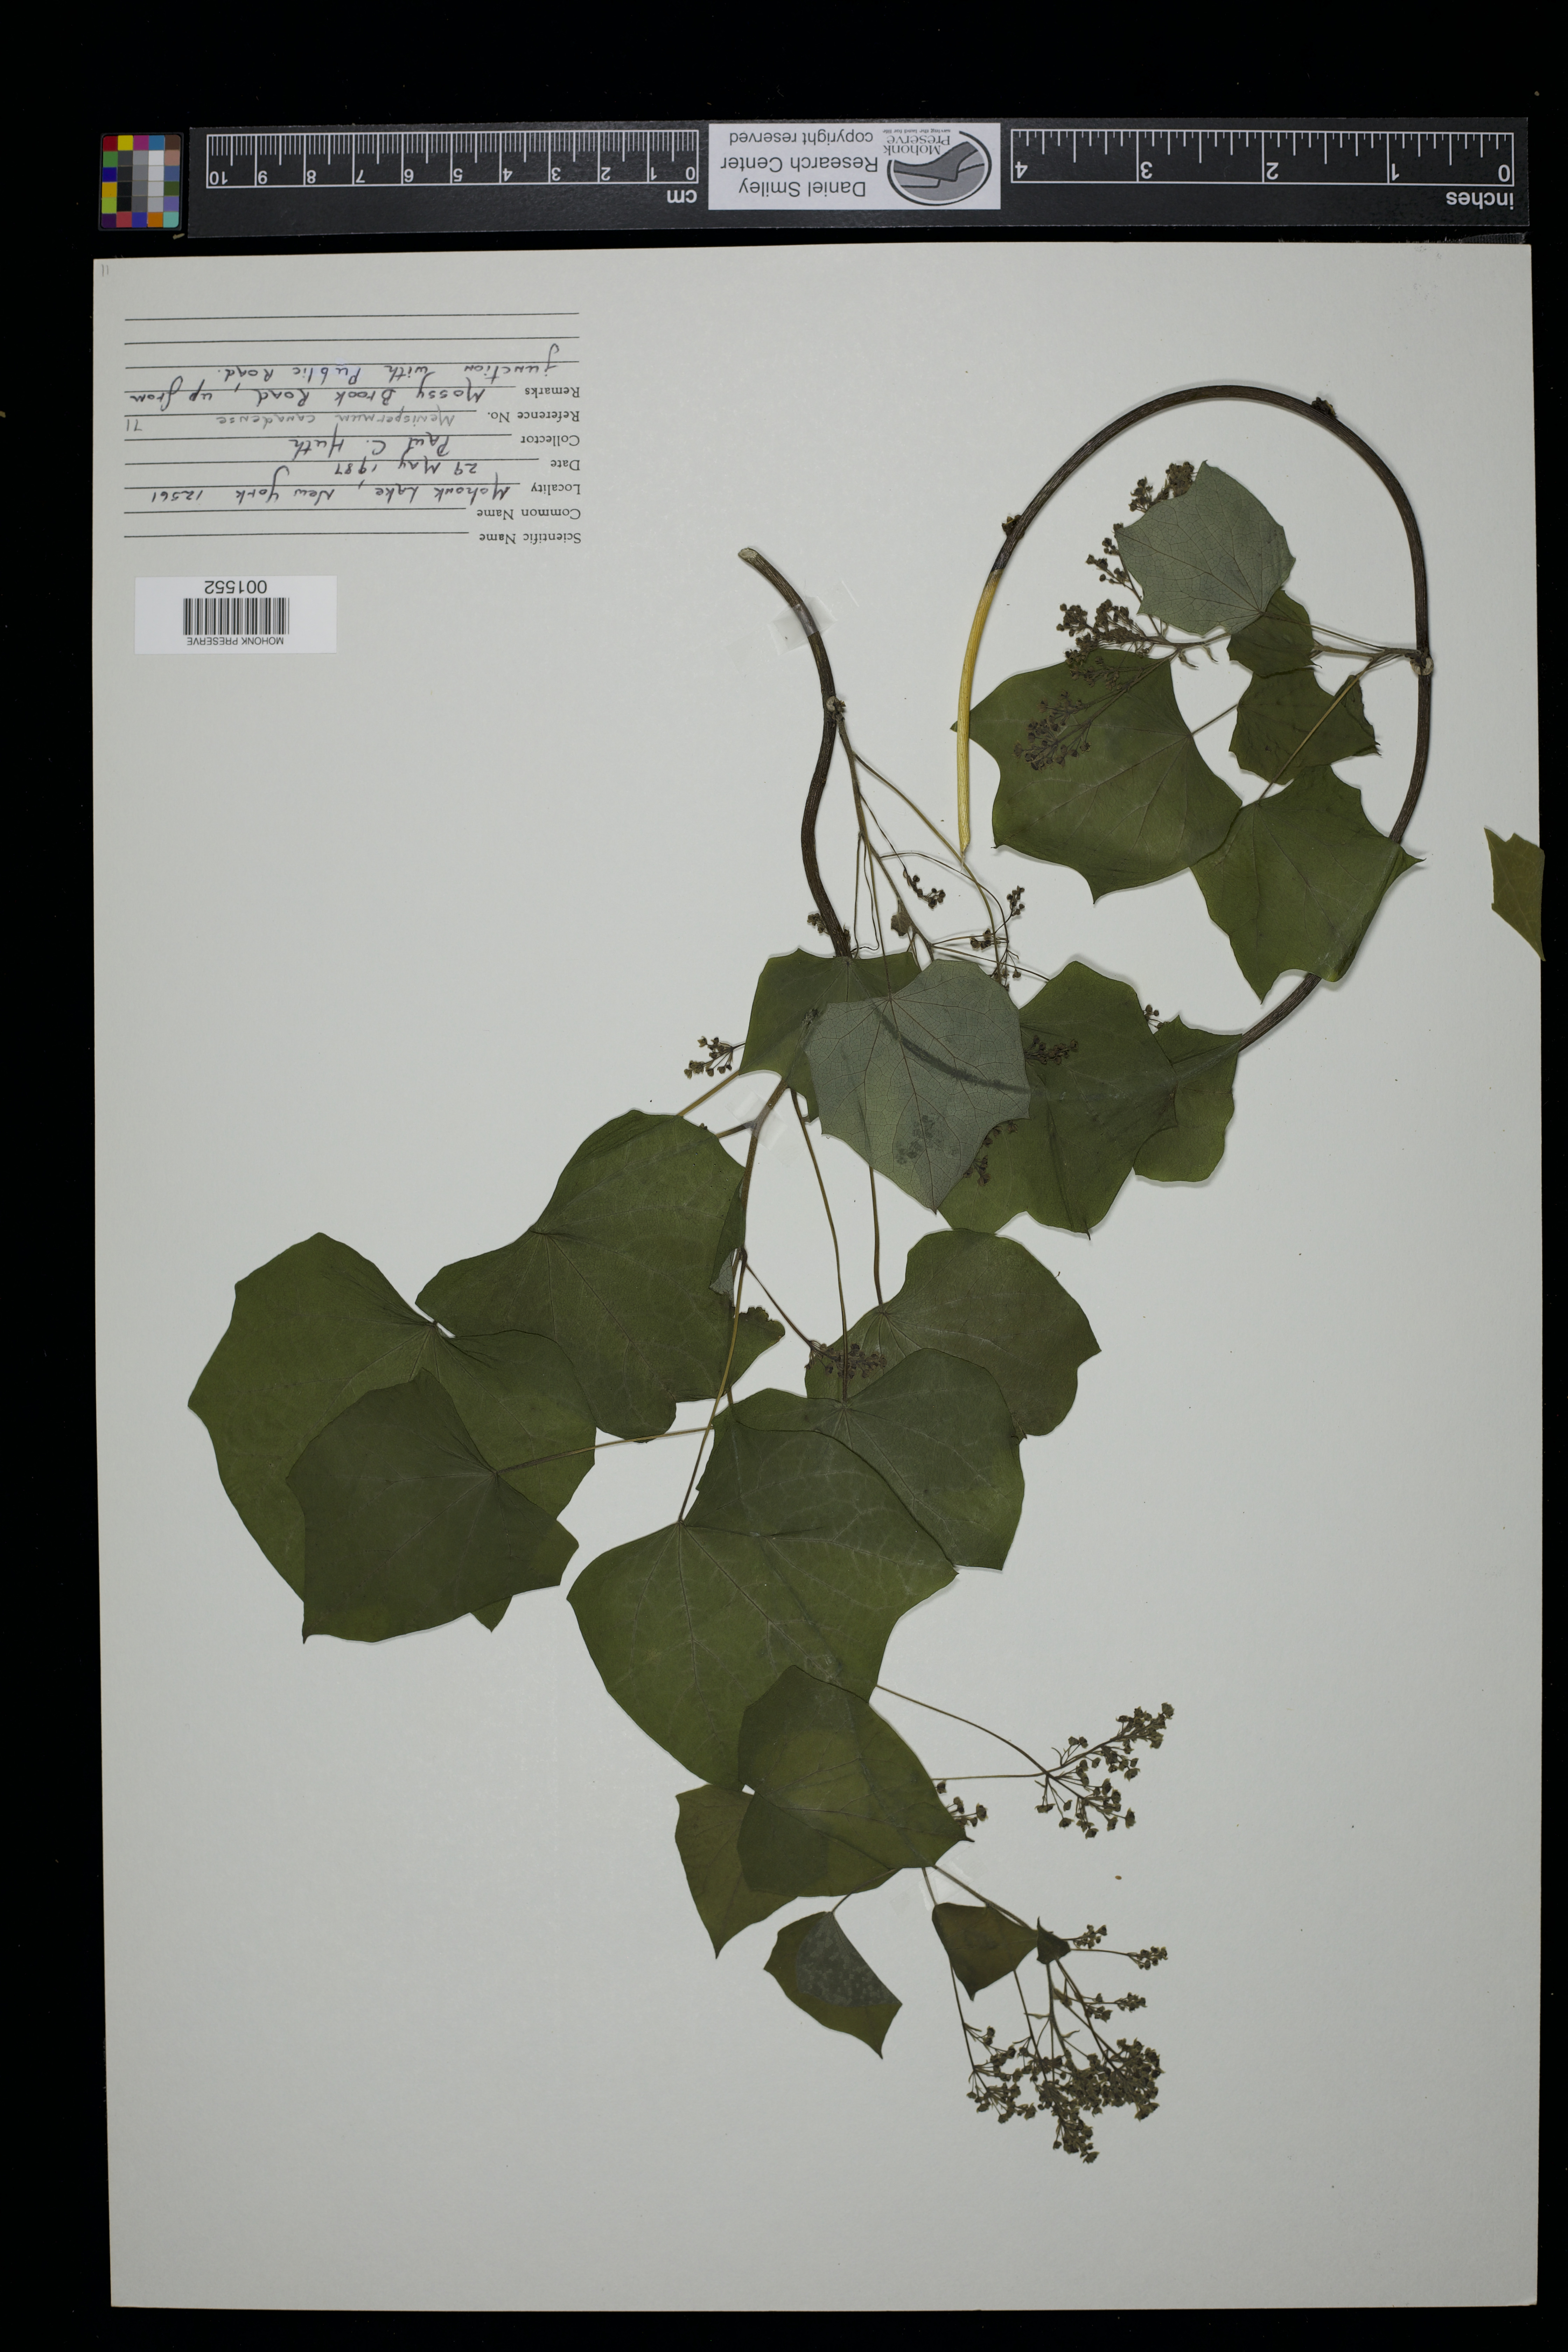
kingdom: Plantae
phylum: Tracheophyta
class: Magnoliopsida
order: Ranunculales
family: Menispermaceae
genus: Menispermum
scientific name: Menispermum canadense
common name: Moonseed
